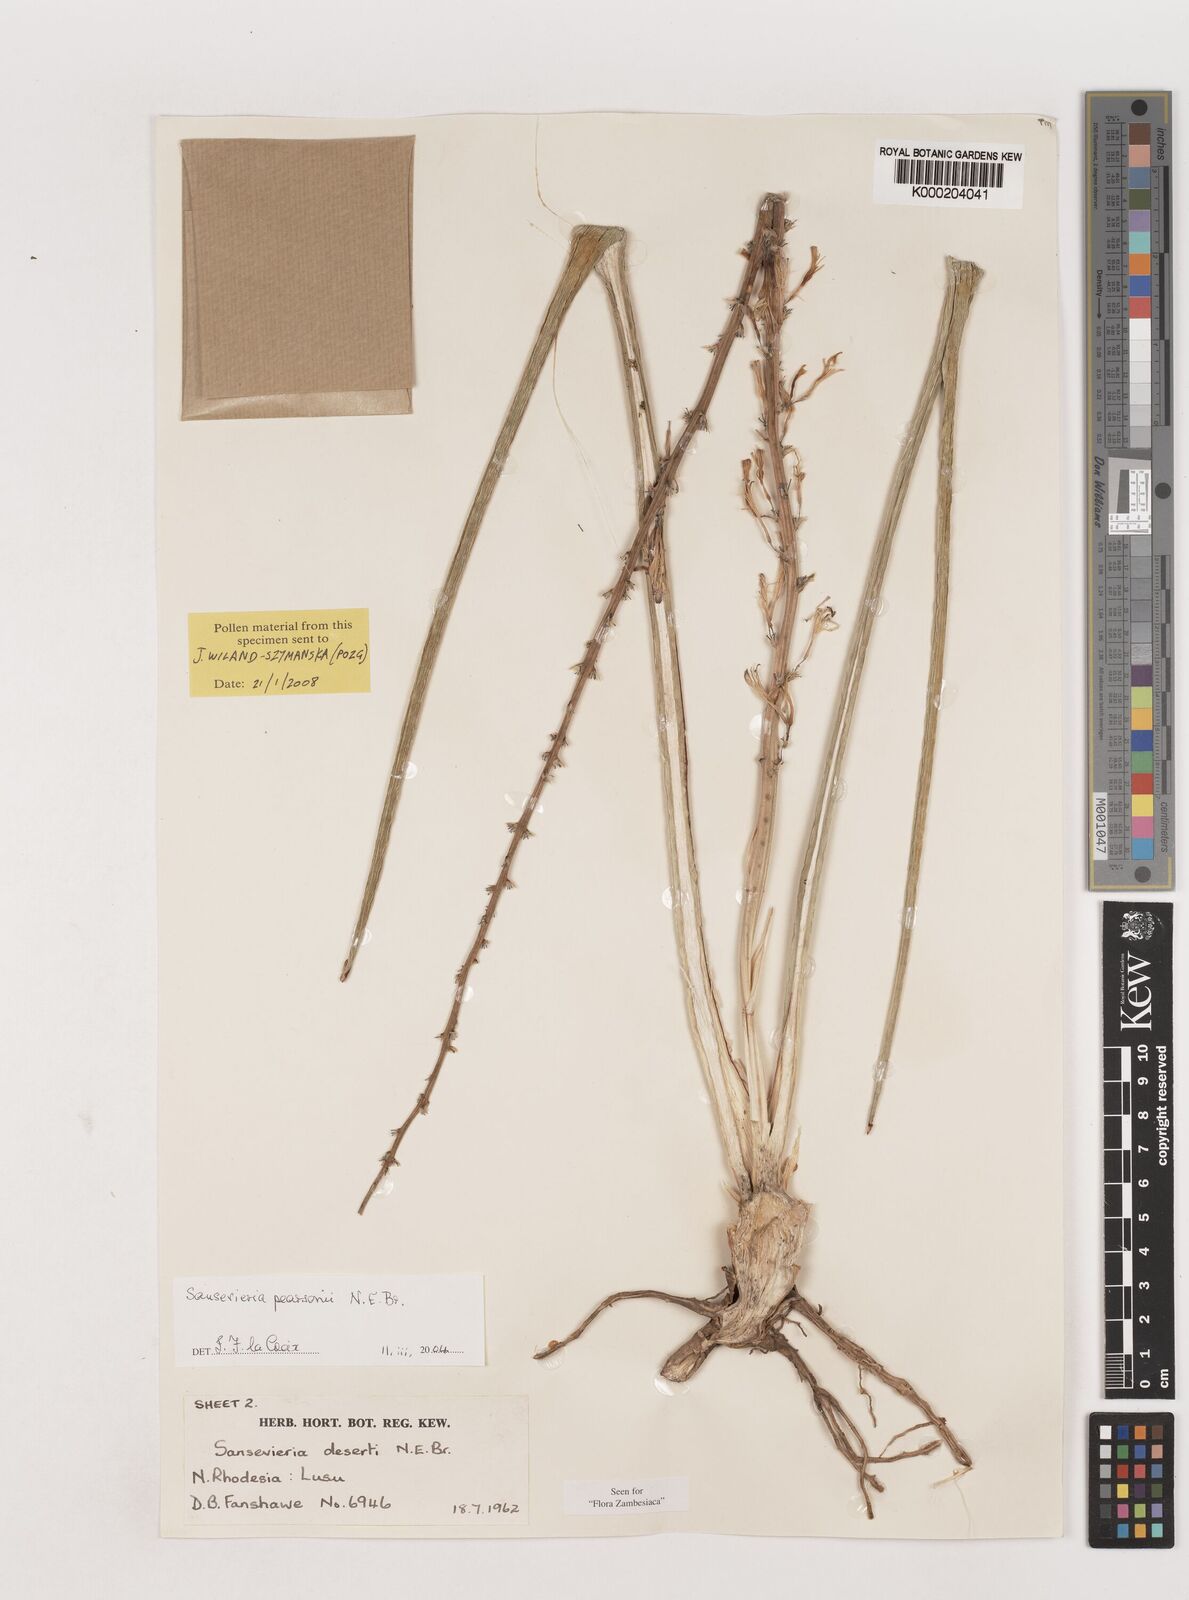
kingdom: Plantae
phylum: Tracheophyta
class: Liliopsida
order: Asparagales
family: Asparagaceae
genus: Dracaena
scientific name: Dracaena pearsonii
